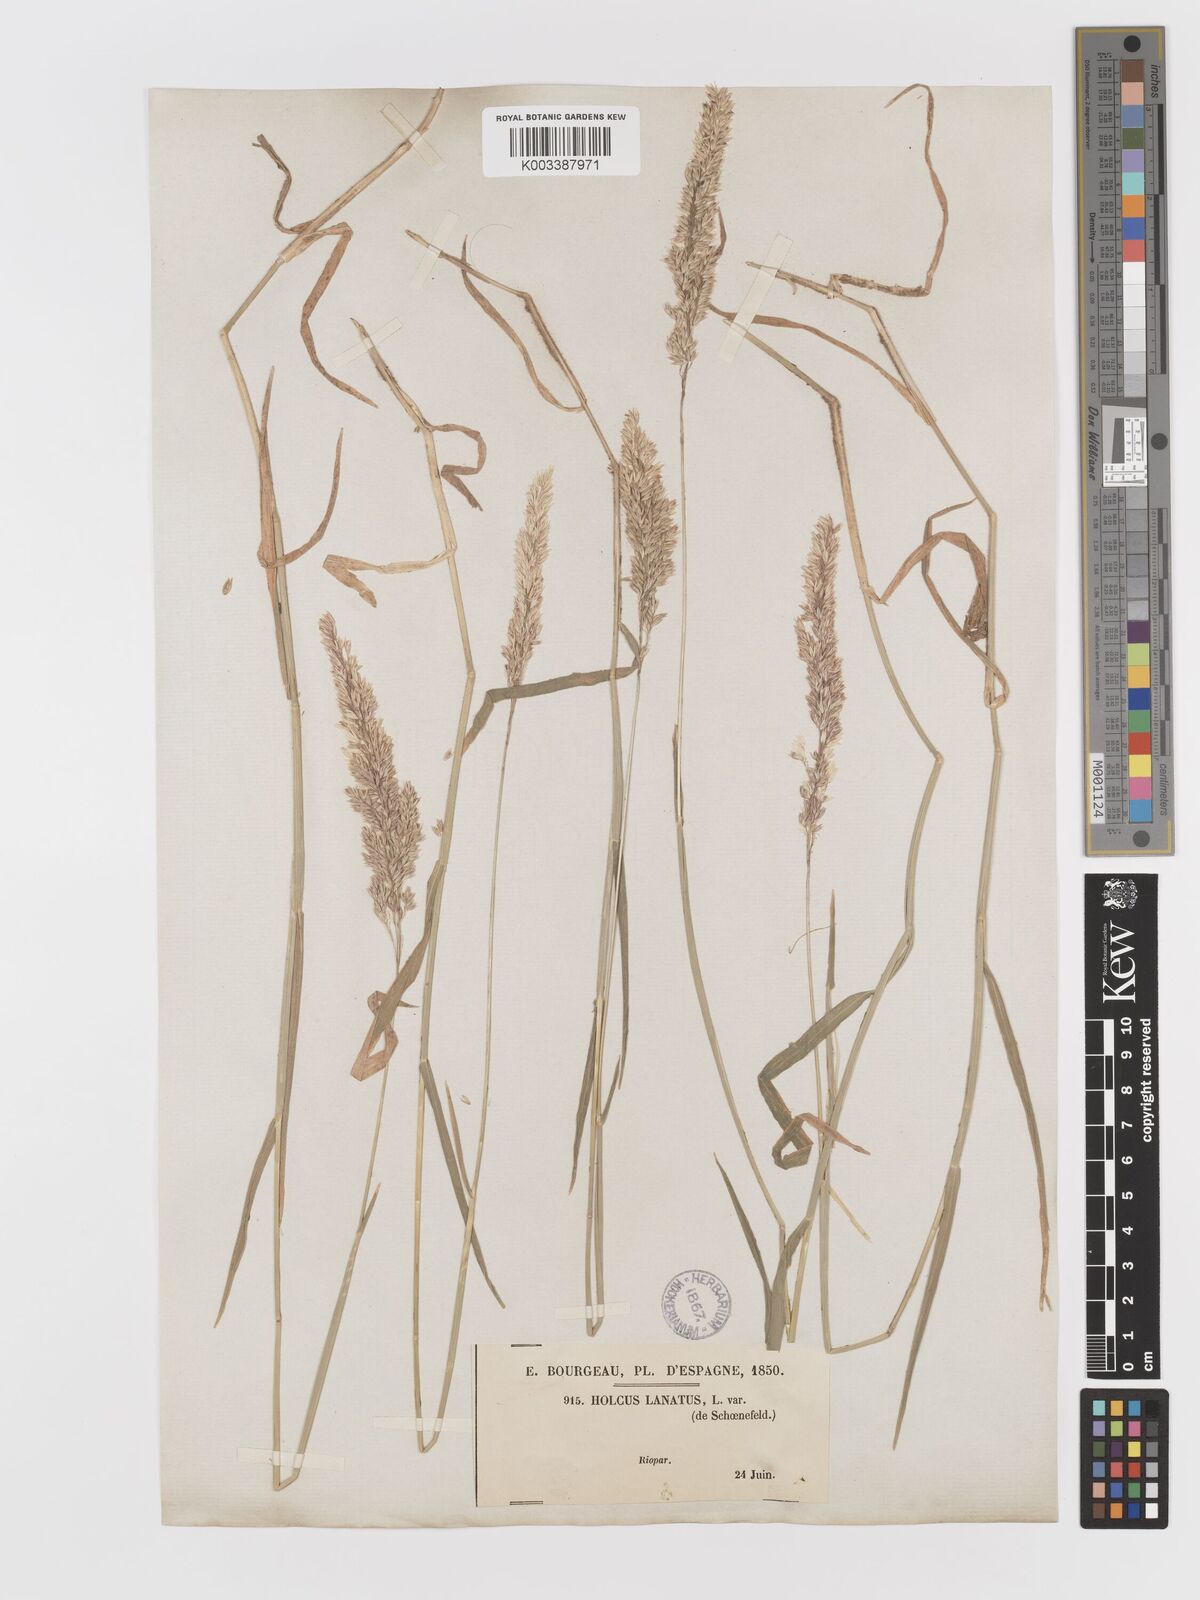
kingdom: Plantae
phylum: Tracheophyta
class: Liliopsida
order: Poales
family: Poaceae
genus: Holcus
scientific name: Holcus lanatus
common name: Yorkshire-fog
